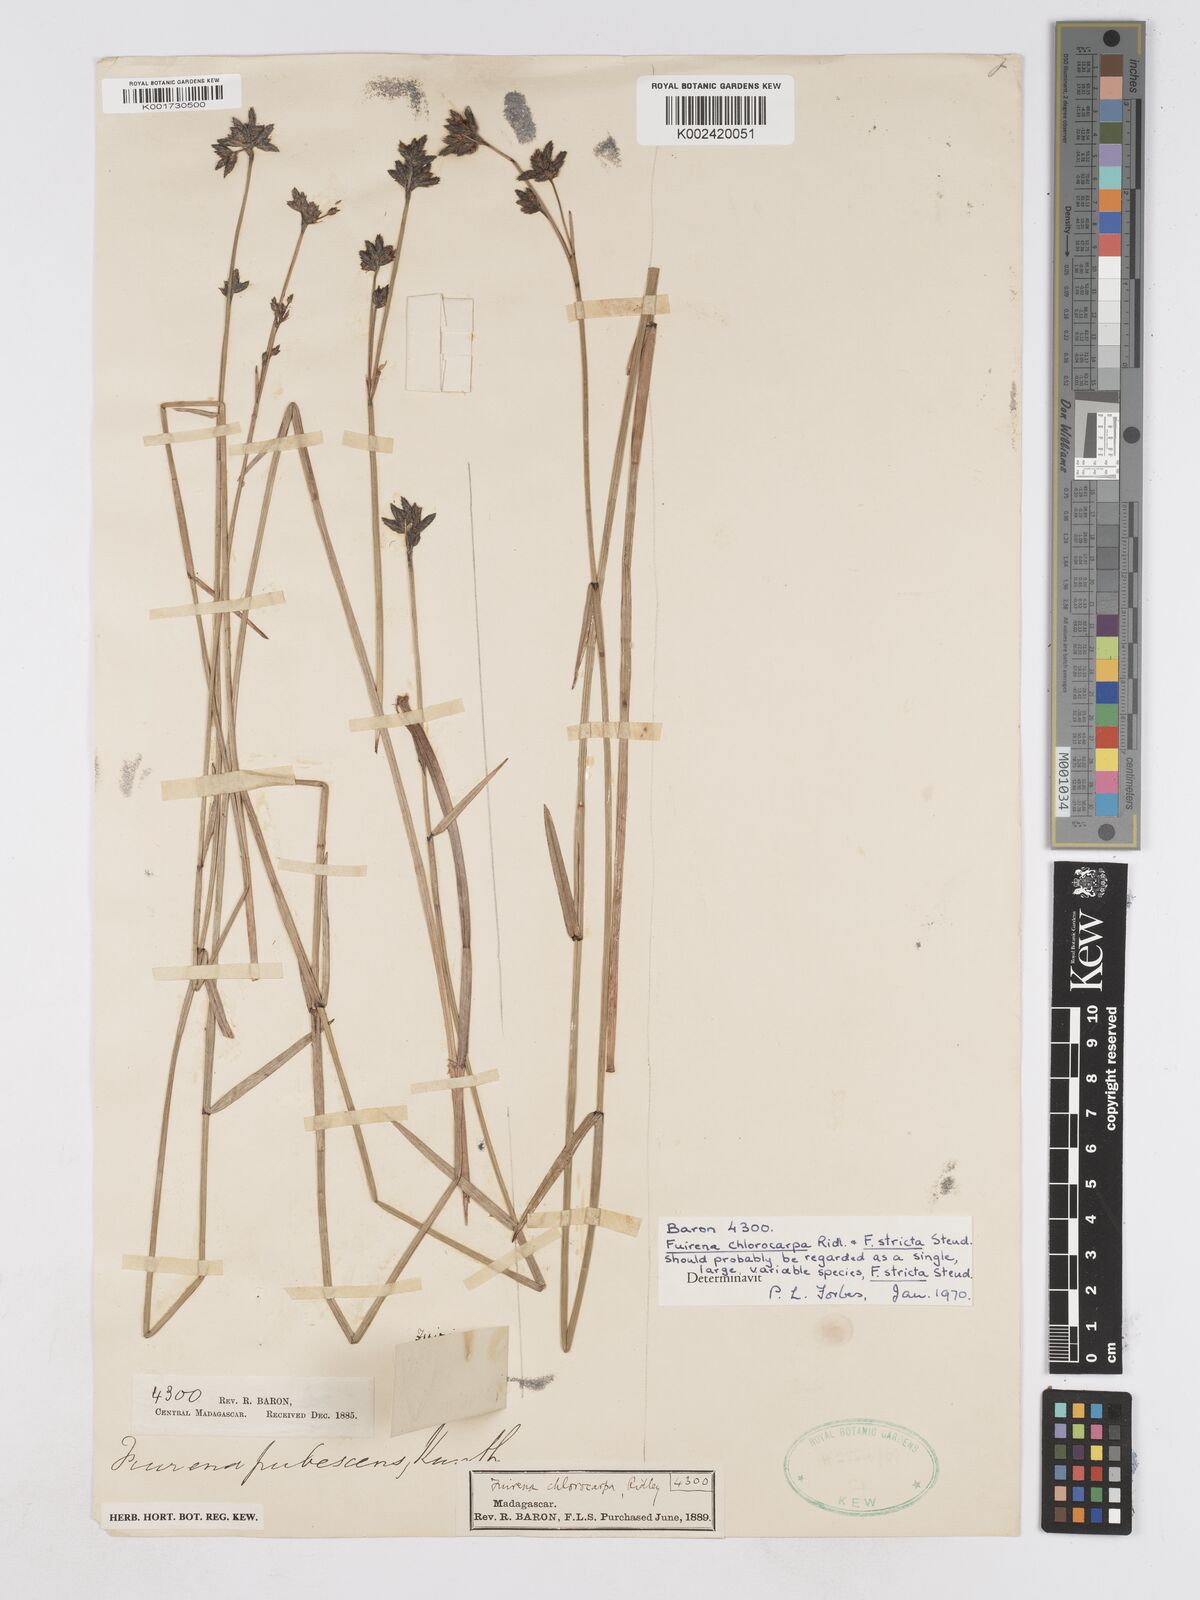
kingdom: Plantae
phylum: Tracheophyta
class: Liliopsida
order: Poales
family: Cyperaceae
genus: Fuirena
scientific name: Fuirena stricta
